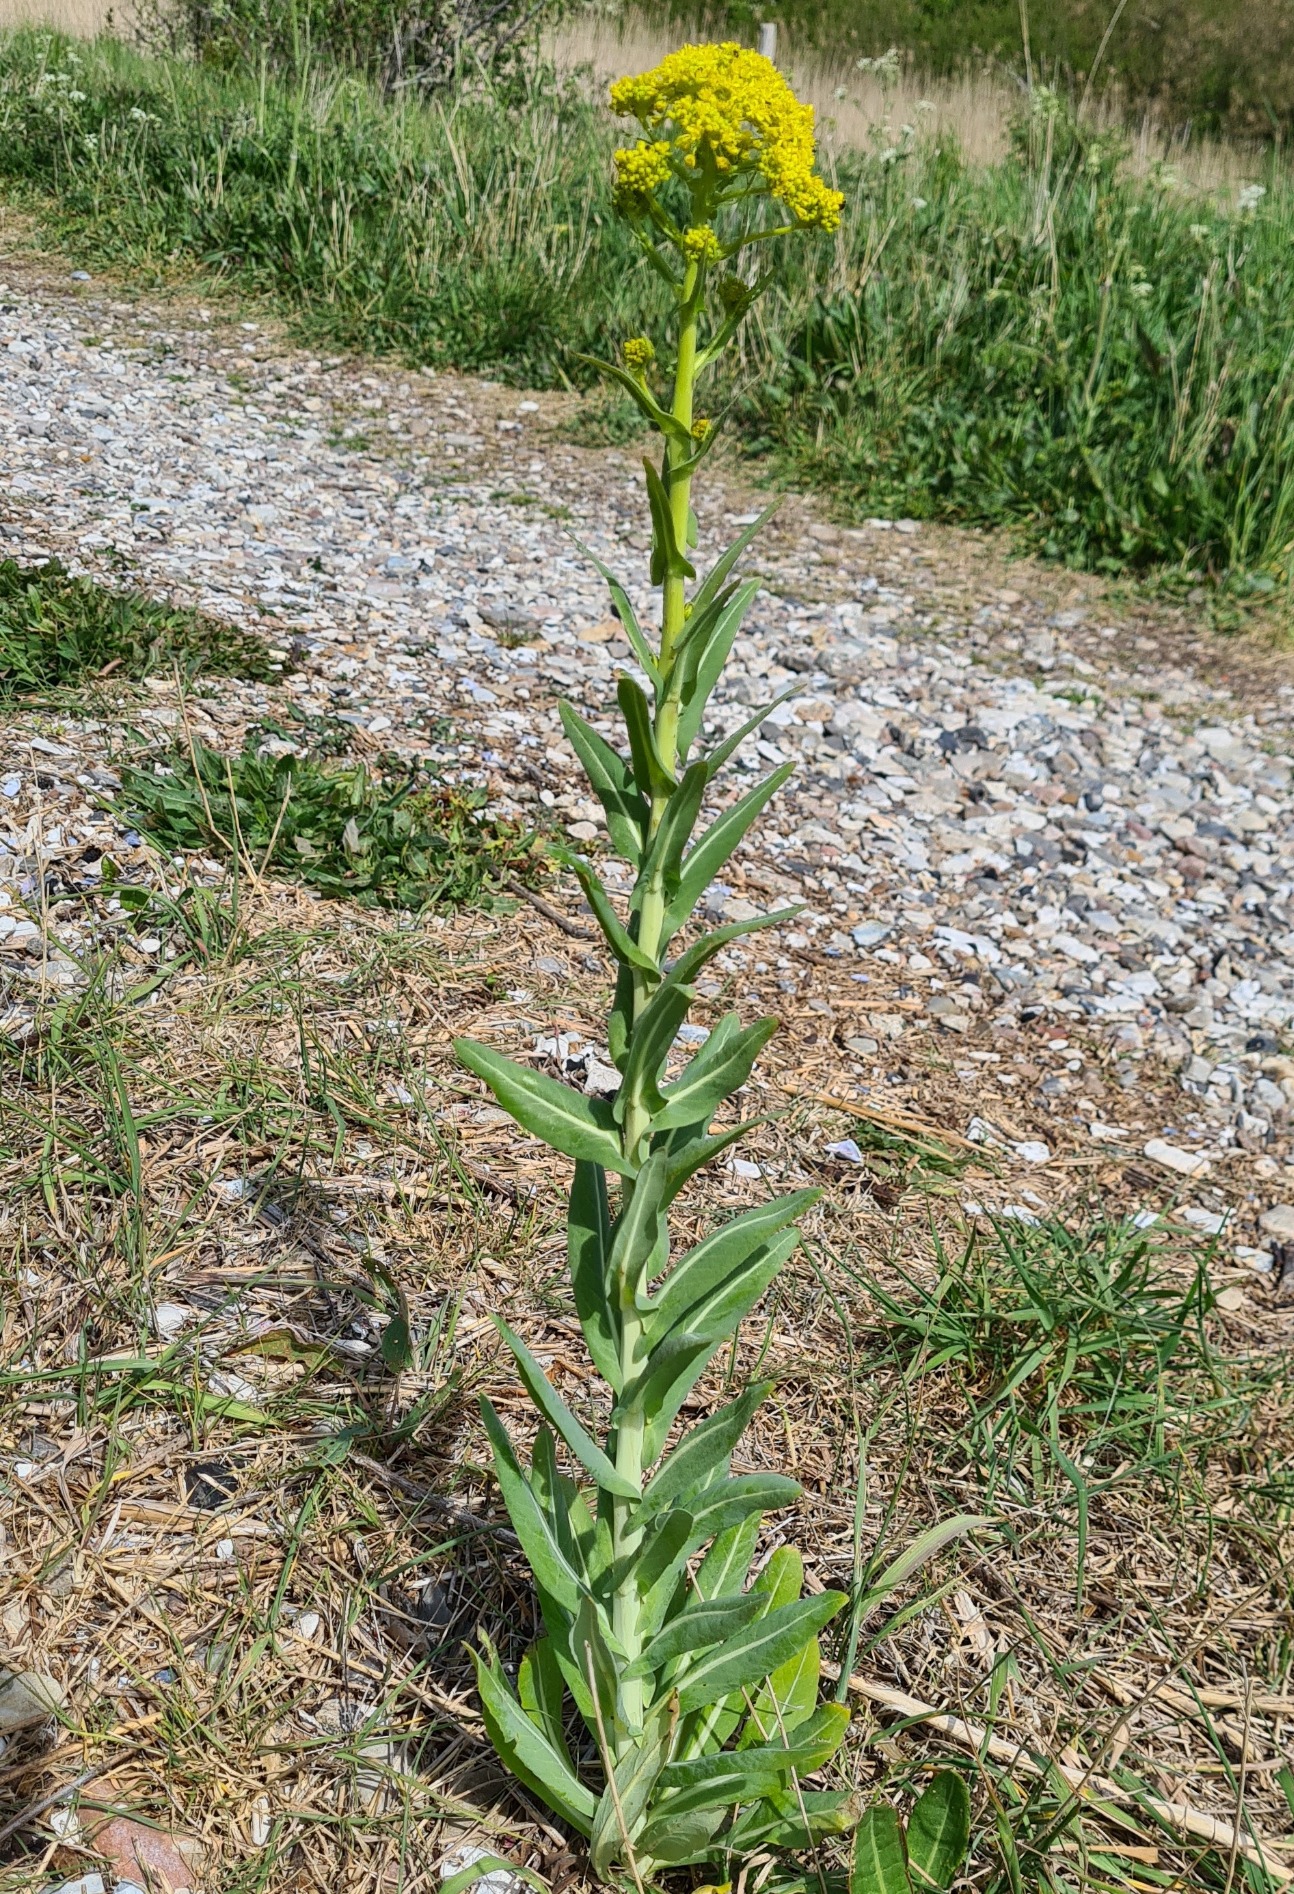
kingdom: Plantae
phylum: Tracheophyta
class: Magnoliopsida
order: Brassicales
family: Brassicaceae
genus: Isatis
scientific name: Isatis tinctoria
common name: Farve-vajd
